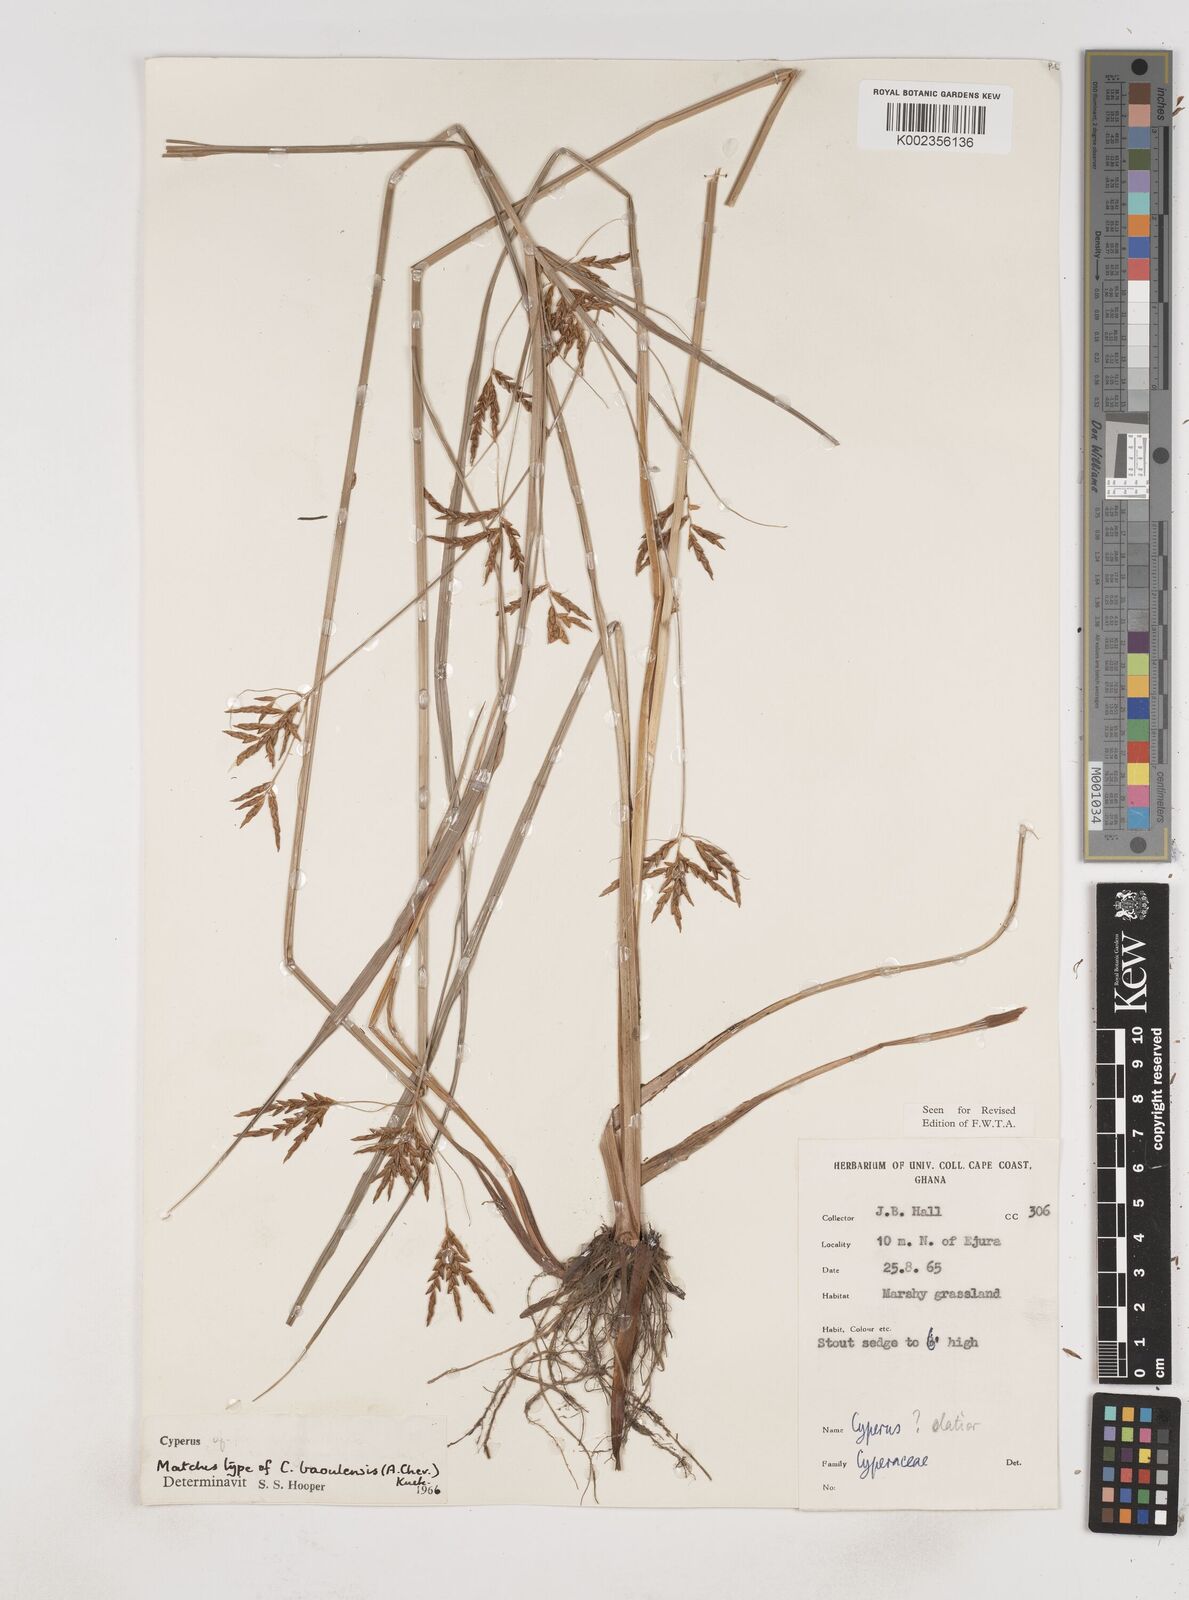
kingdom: Plantae
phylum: Tracheophyta
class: Liliopsida
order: Poales
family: Cyperaceae
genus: Cyperus
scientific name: Cyperus baoulensis
